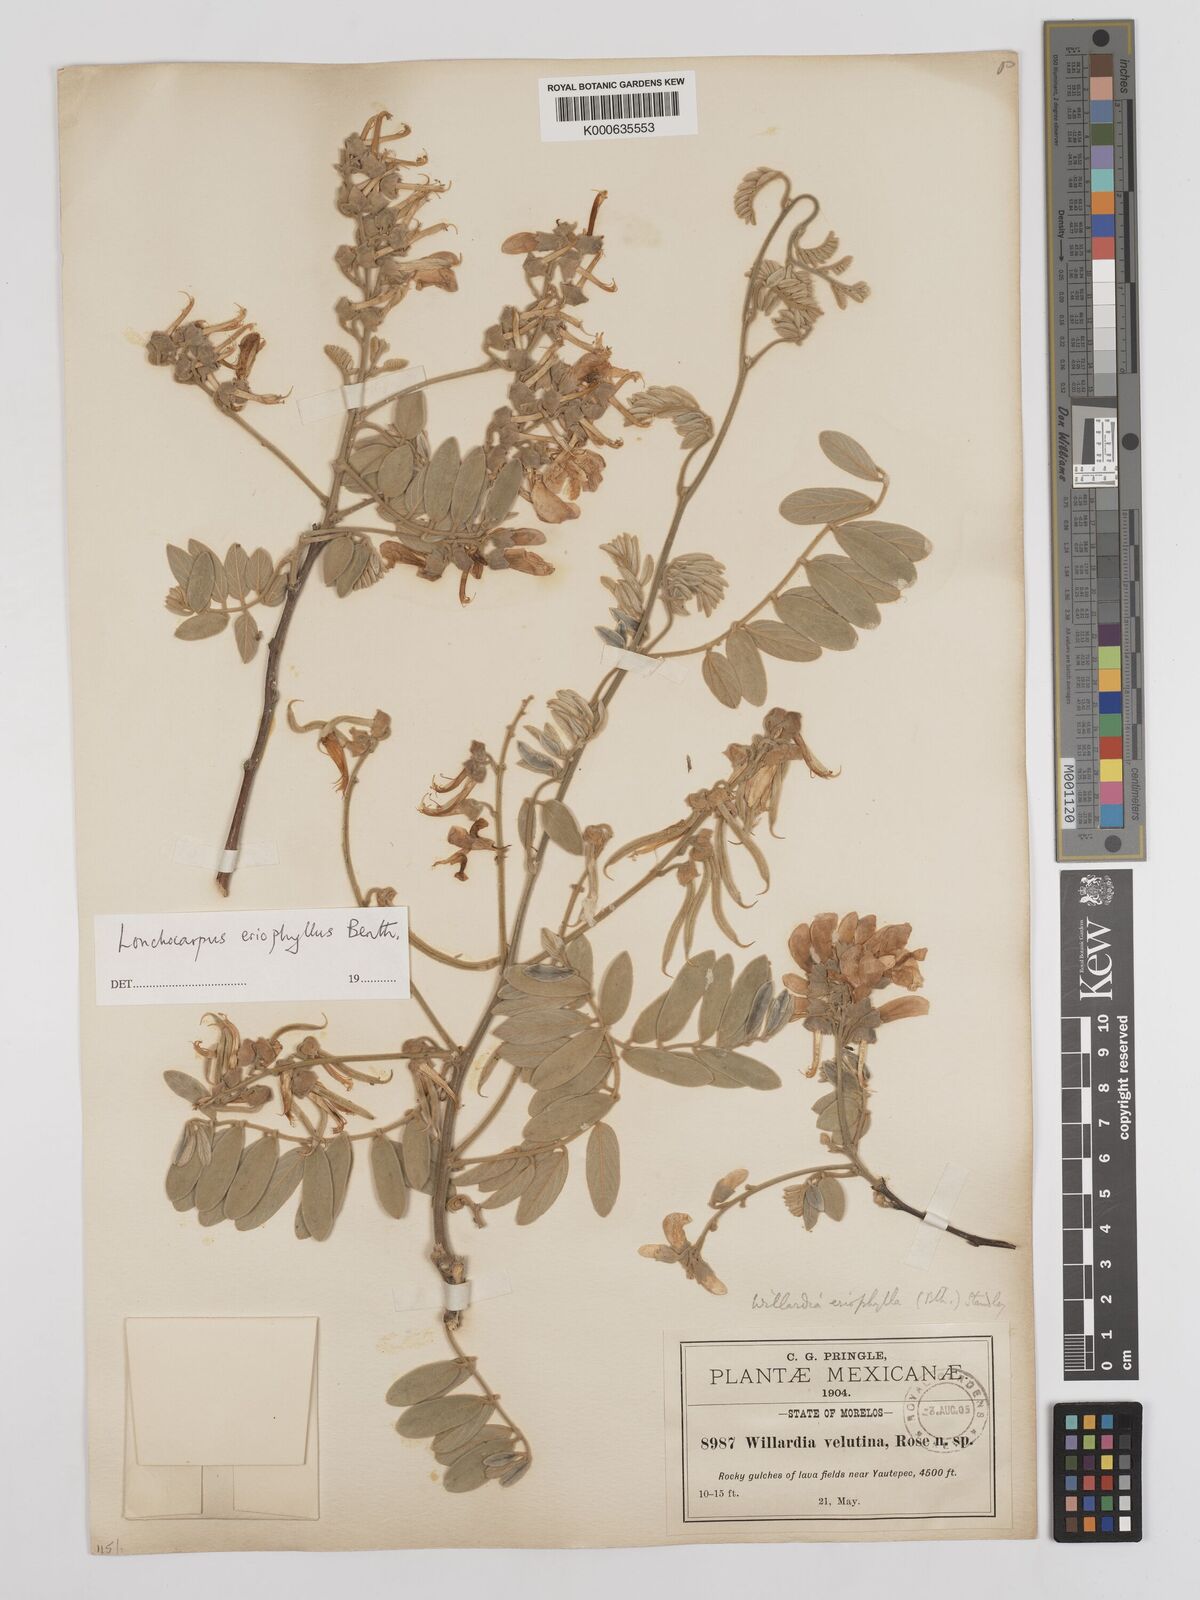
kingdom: Plantae
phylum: Tracheophyta
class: Magnoliopsida
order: Fabales
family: Fabaceae
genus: Lonchocarpus
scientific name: Lonchocarpus eriophyllus
